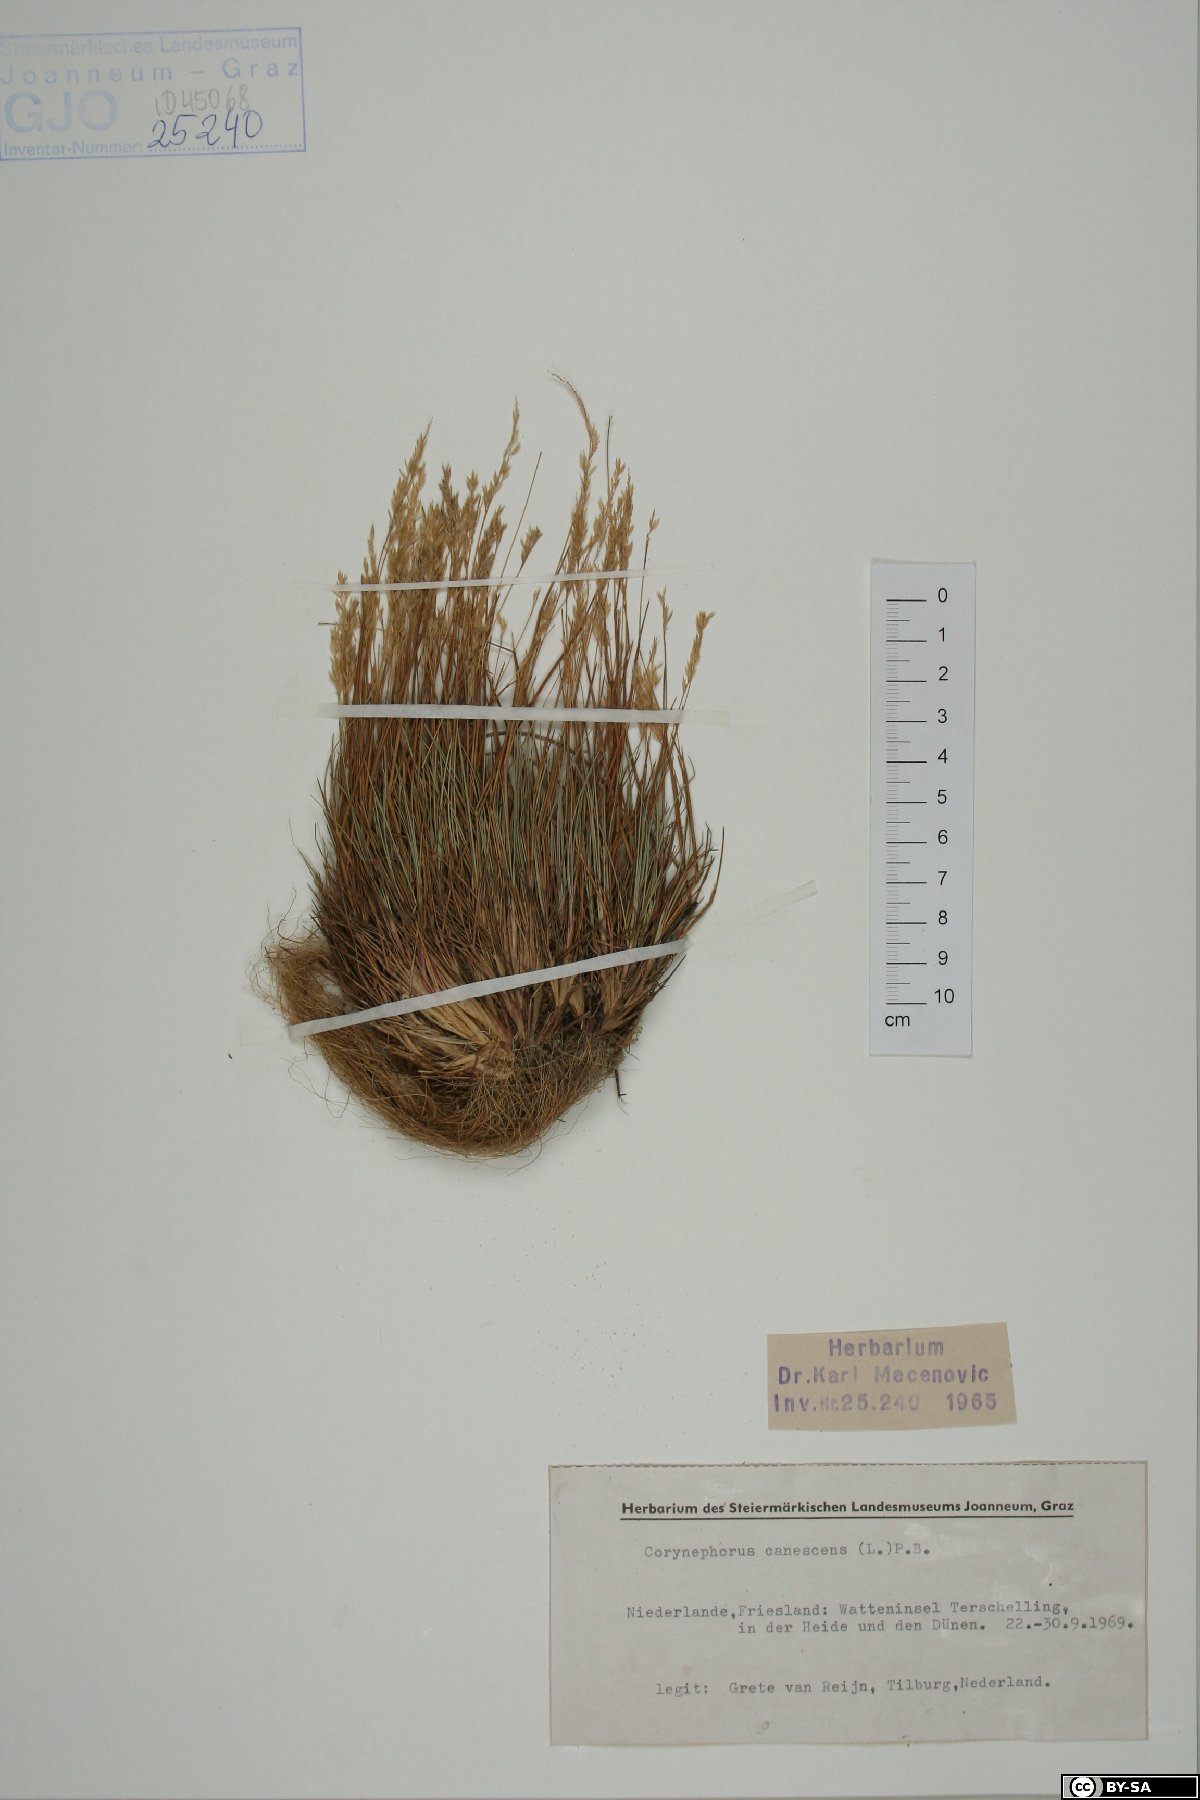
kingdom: Plantae
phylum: Tracheophyta
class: Liliopsida
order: Poales
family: Poaceae
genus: Corynephorus
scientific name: Corynephorus canescens
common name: Grey hair-grass
